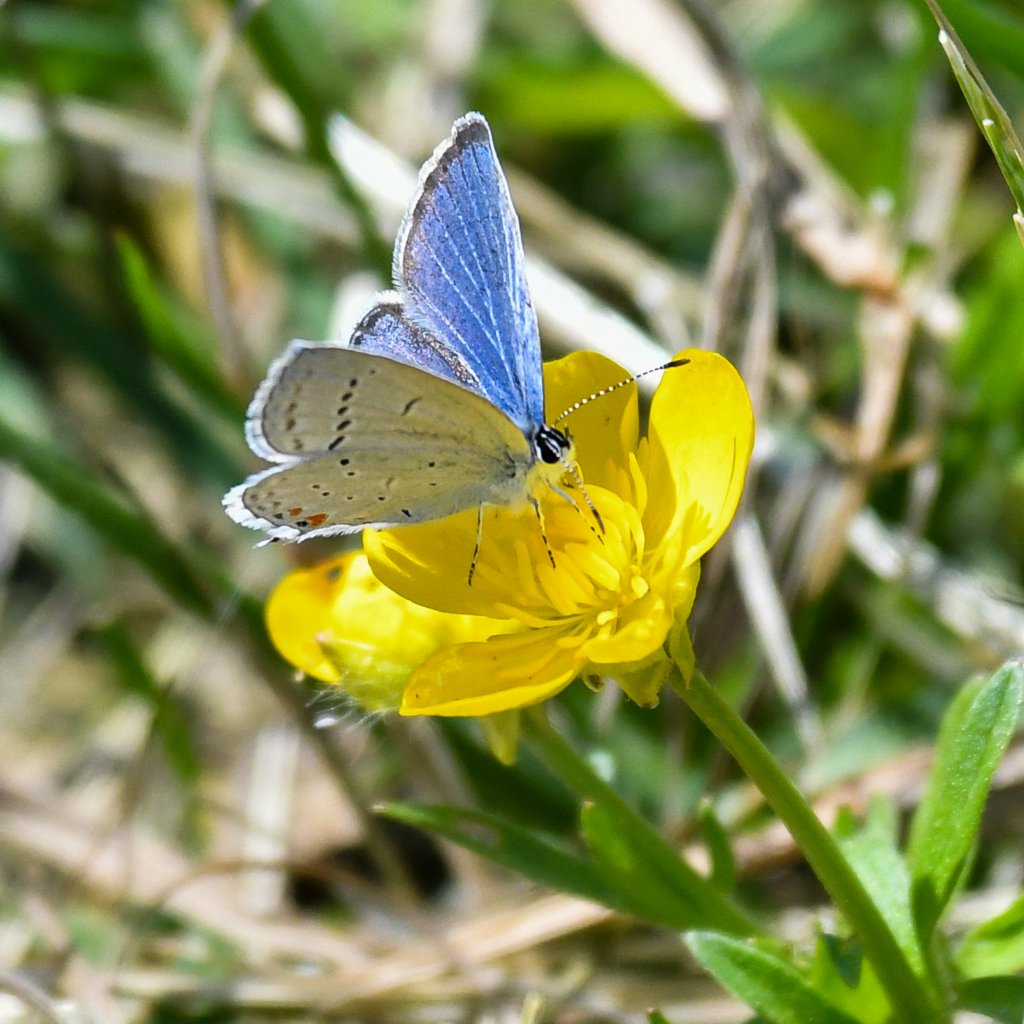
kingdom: Animalia
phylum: Arthropoda
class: Insecta
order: Lepidoptera
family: Lycaenidae
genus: Elkalyce
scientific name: Elkalyce comyntas
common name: Eastern Tailed-Blue
